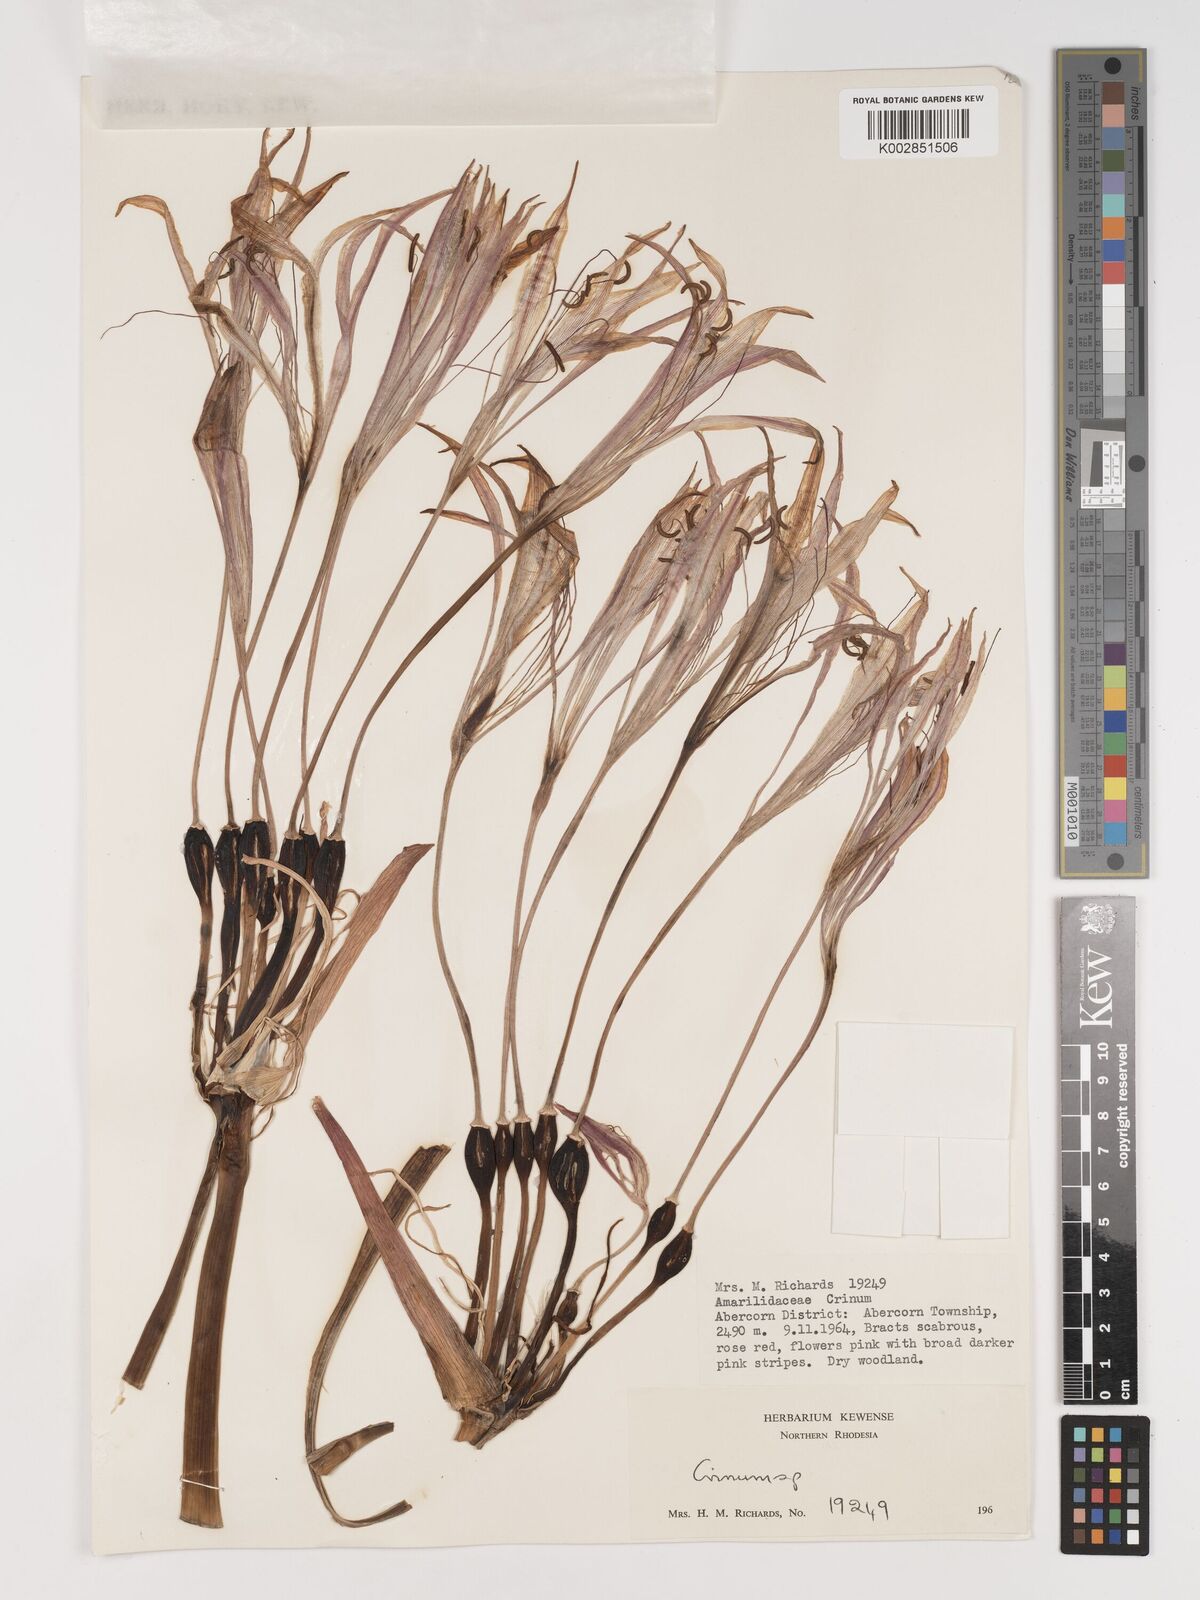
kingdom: Plantae
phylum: Tracheophyta
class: Liliopsida
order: Asparagales
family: Amaryllidaceae
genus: Crinum
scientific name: Crinum stuhlmannii
